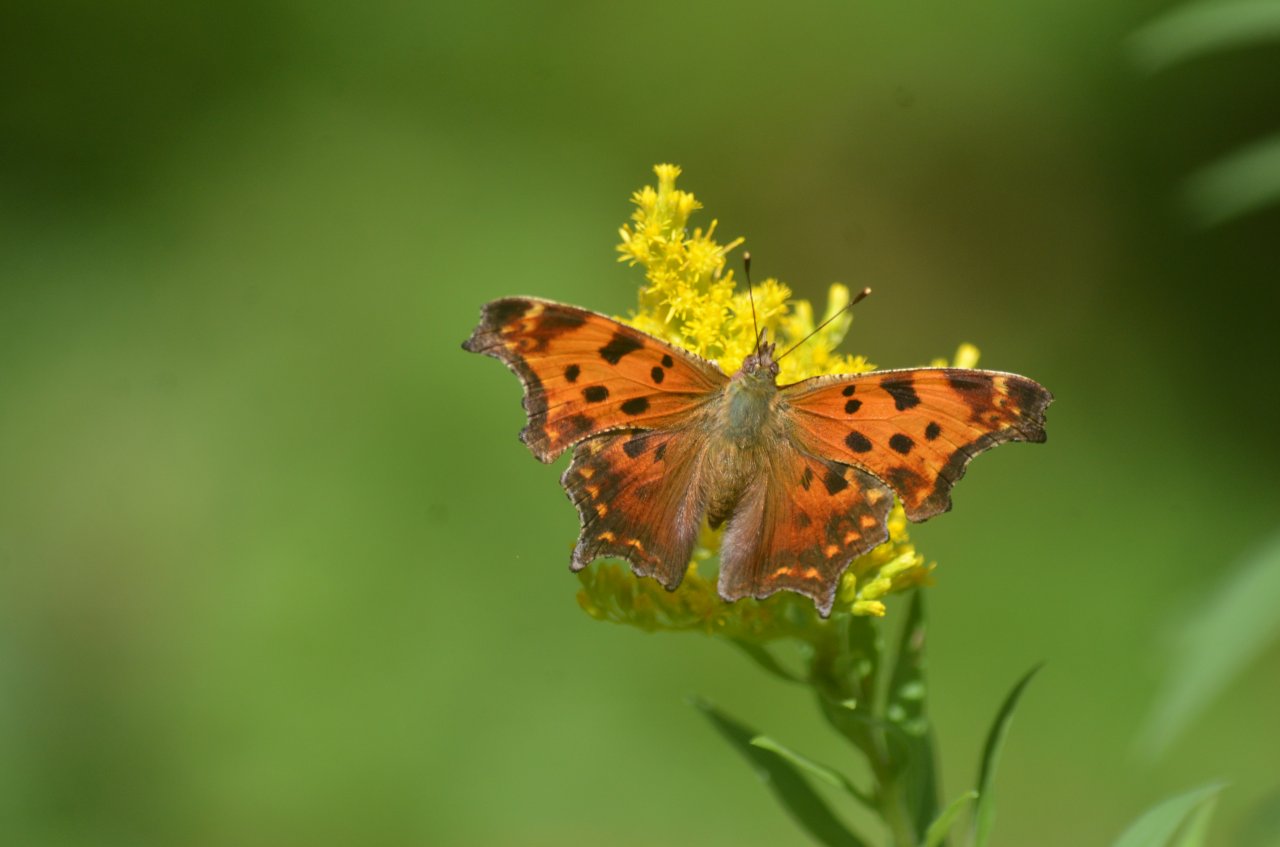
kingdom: Animalia
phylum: Arthropoda
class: Insecta
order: Lepidoptera
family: Nymphalidae
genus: Polygonia
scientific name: Polygonia comma
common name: Eastern Comma
